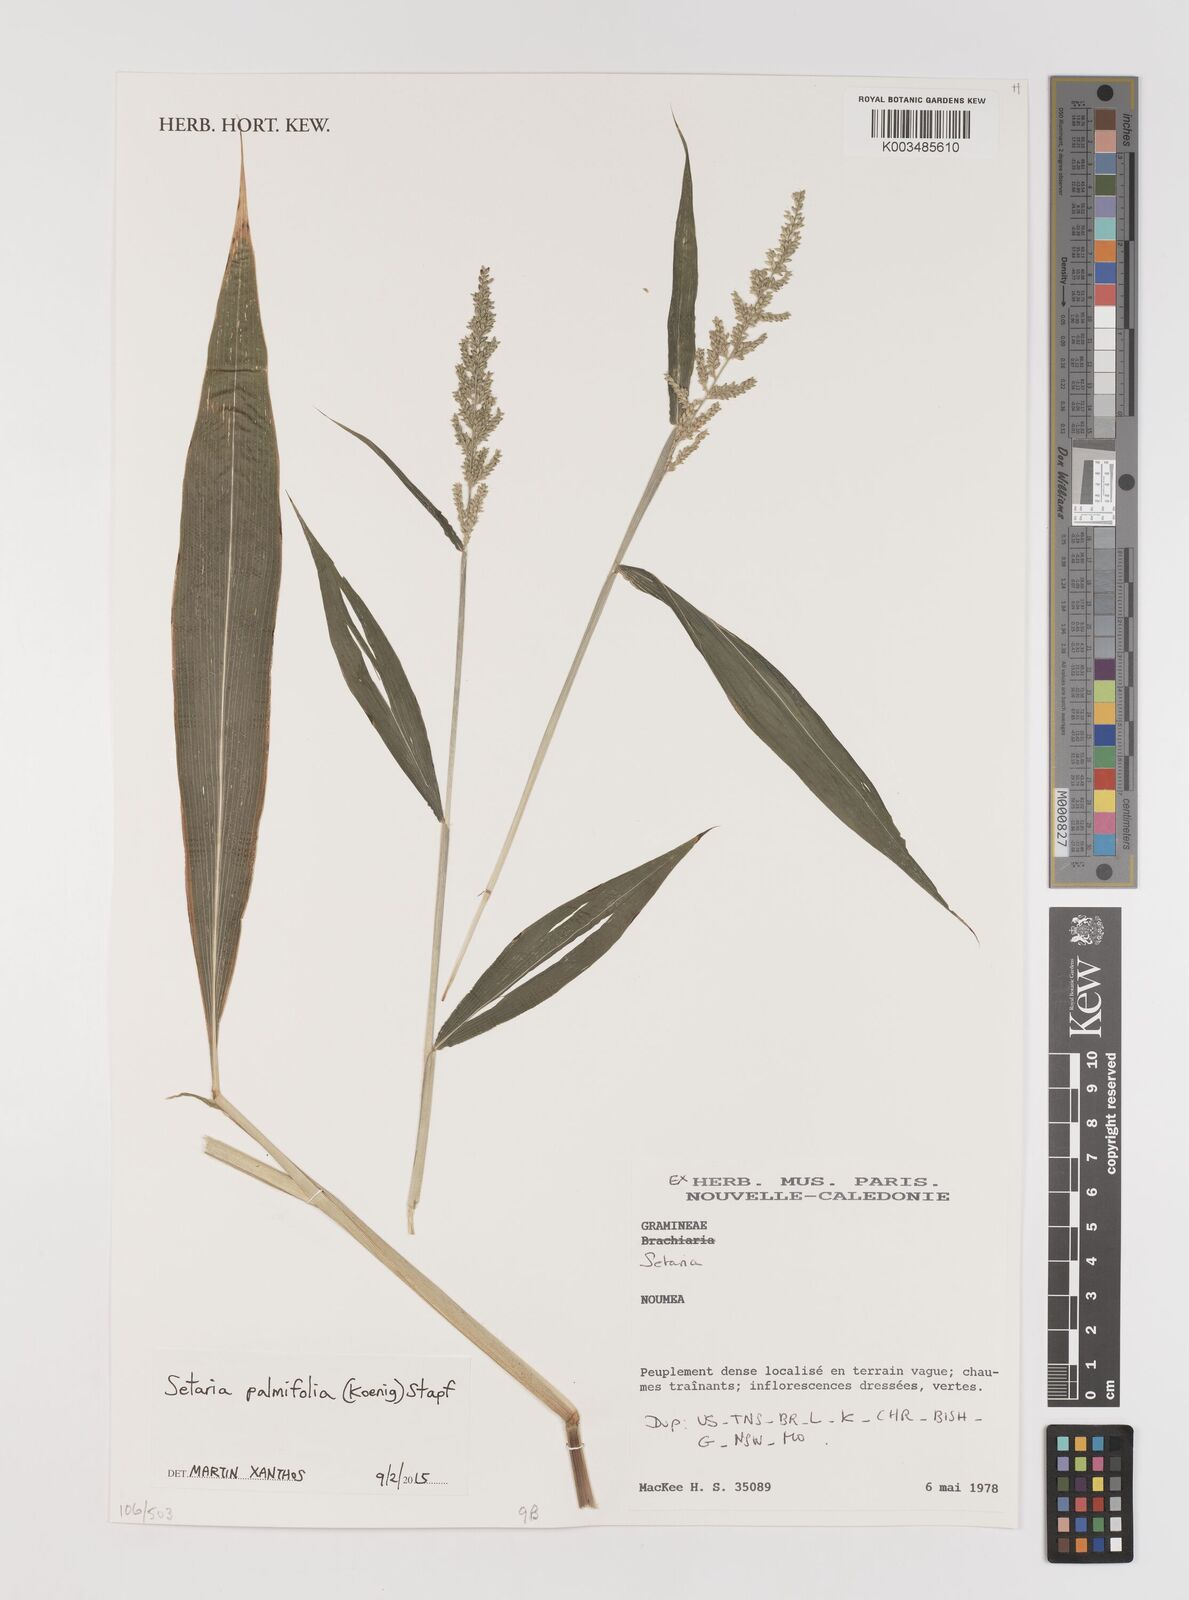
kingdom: Plantae
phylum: Tracheophyta
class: Liliopsida
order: Poales
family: Poaceae
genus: Setaria
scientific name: Setaria palmifolia
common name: Broadleaved bristlegrass
